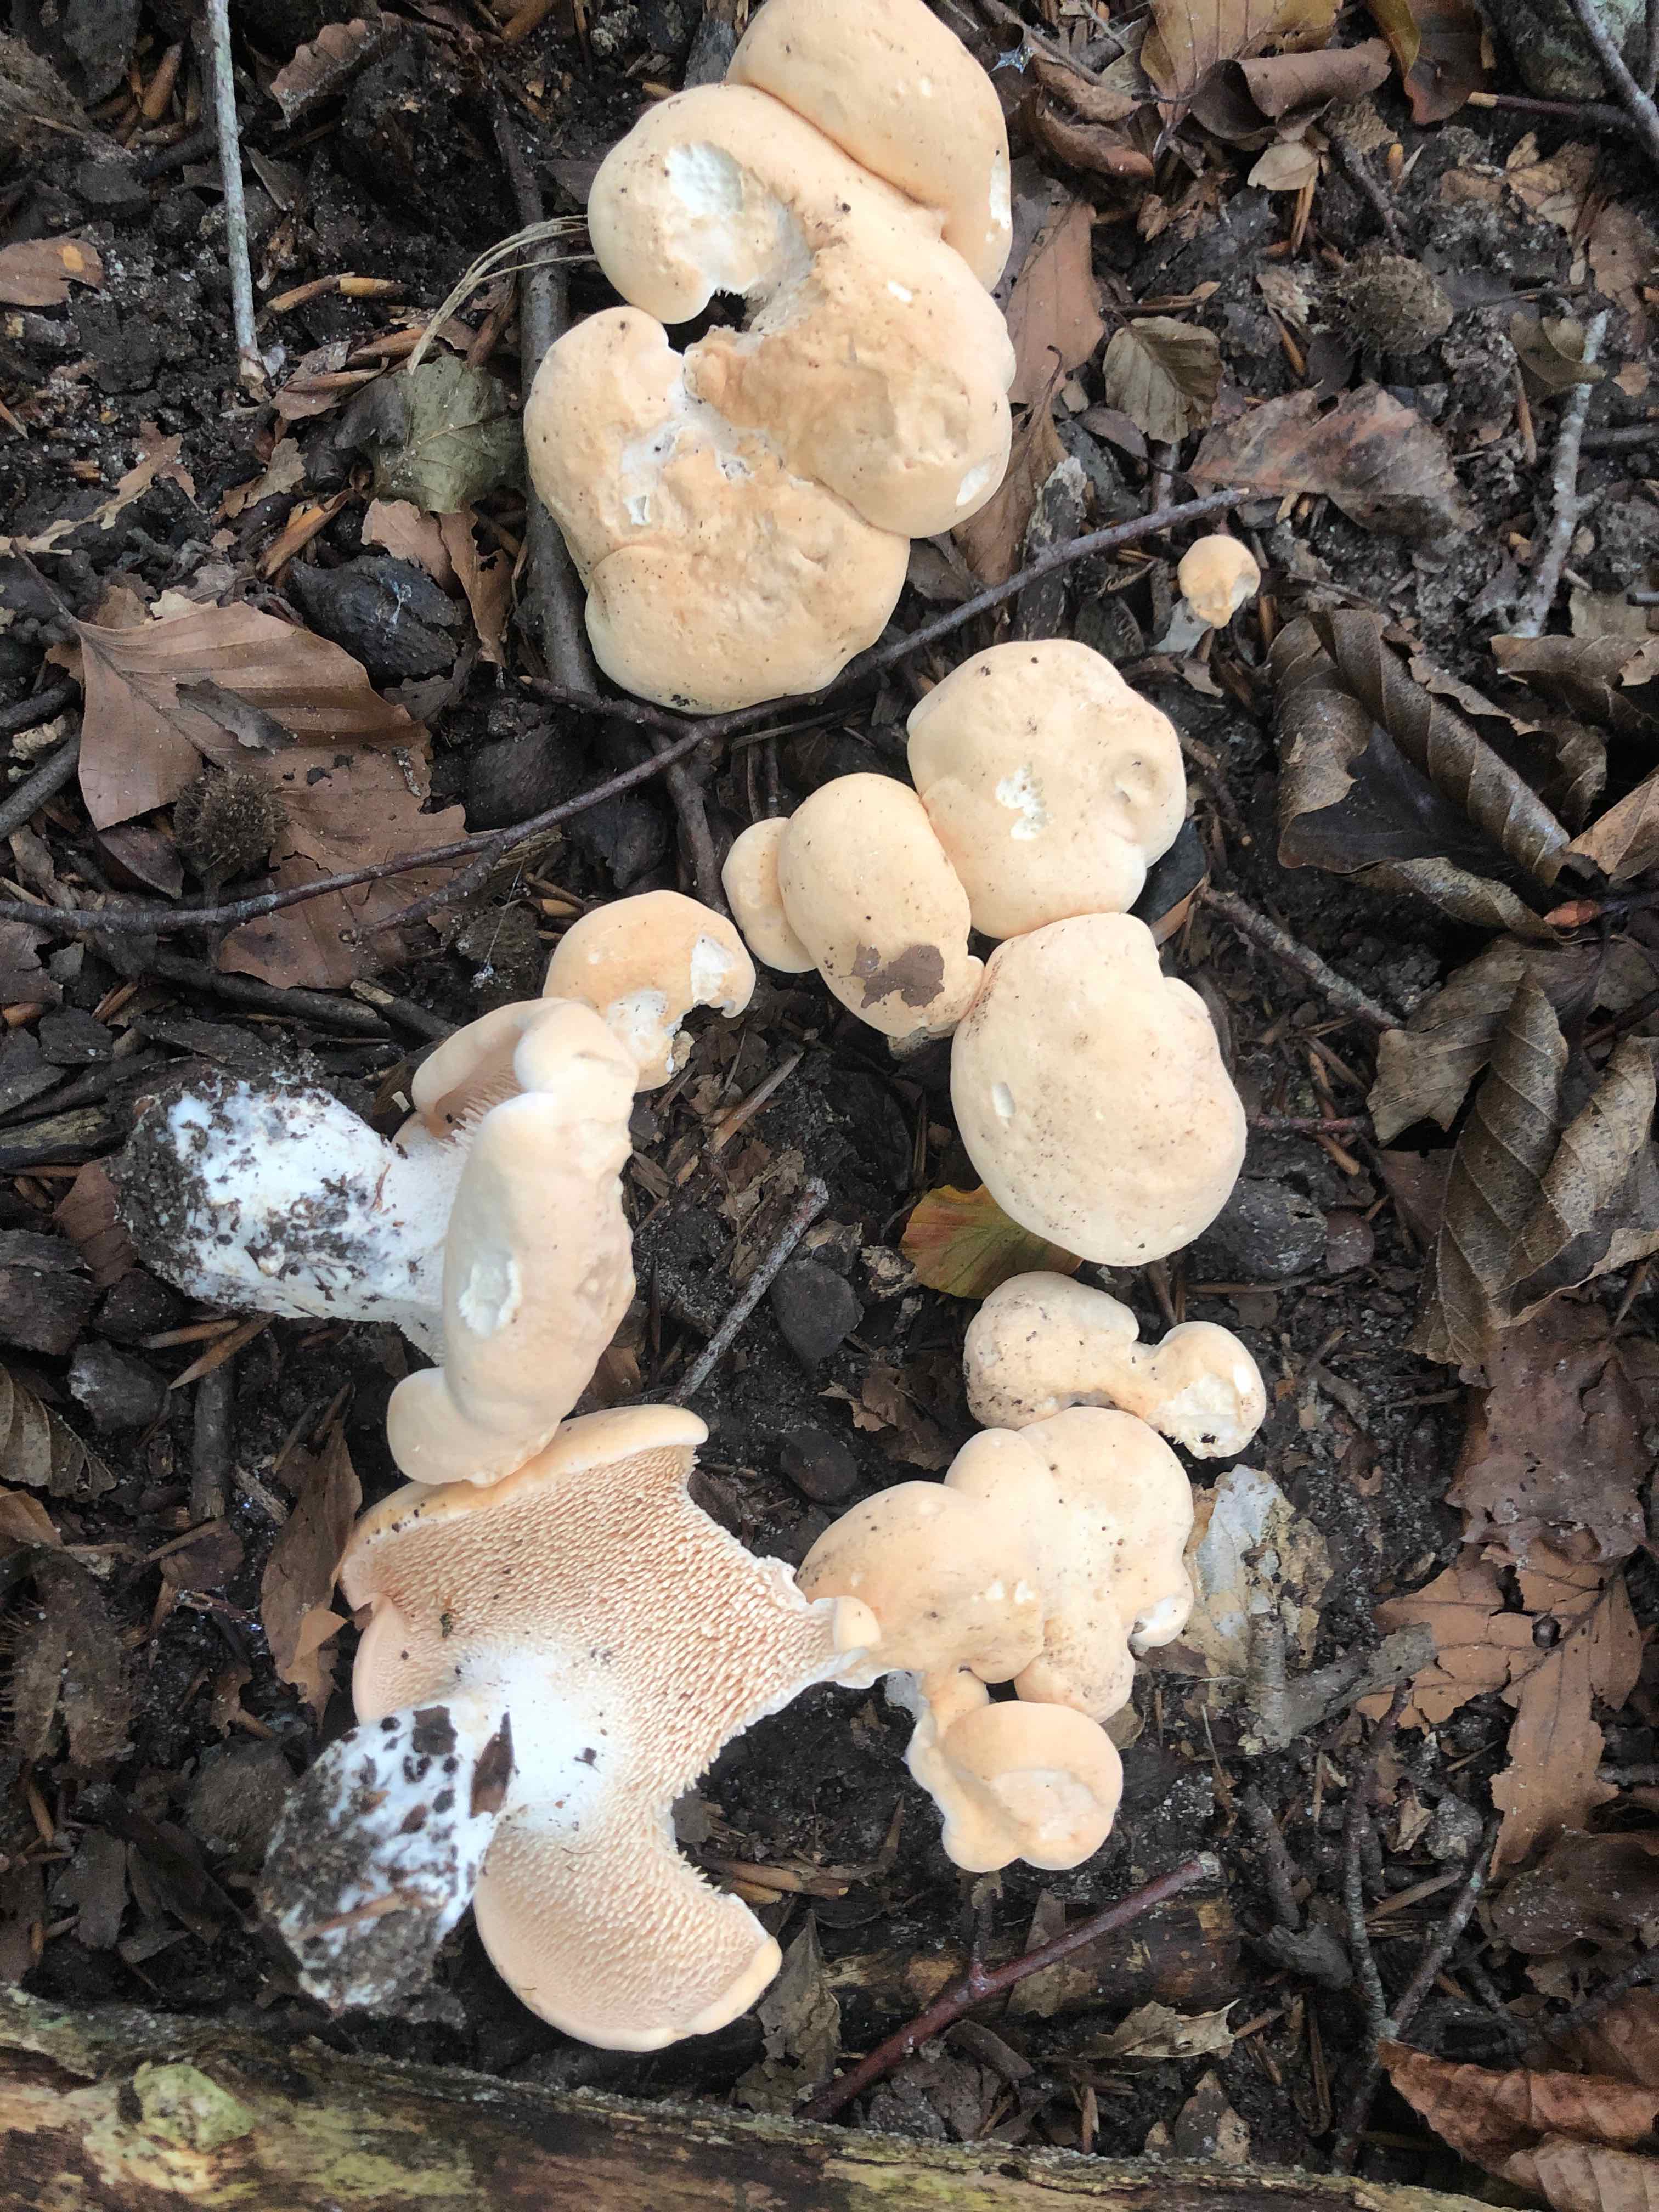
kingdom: Fungi
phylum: Basidiomycota
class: Agaricomycetes
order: Cantharellales
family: Hydnaceae
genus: Hydnum
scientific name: Hydnum
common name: pigsvamp
